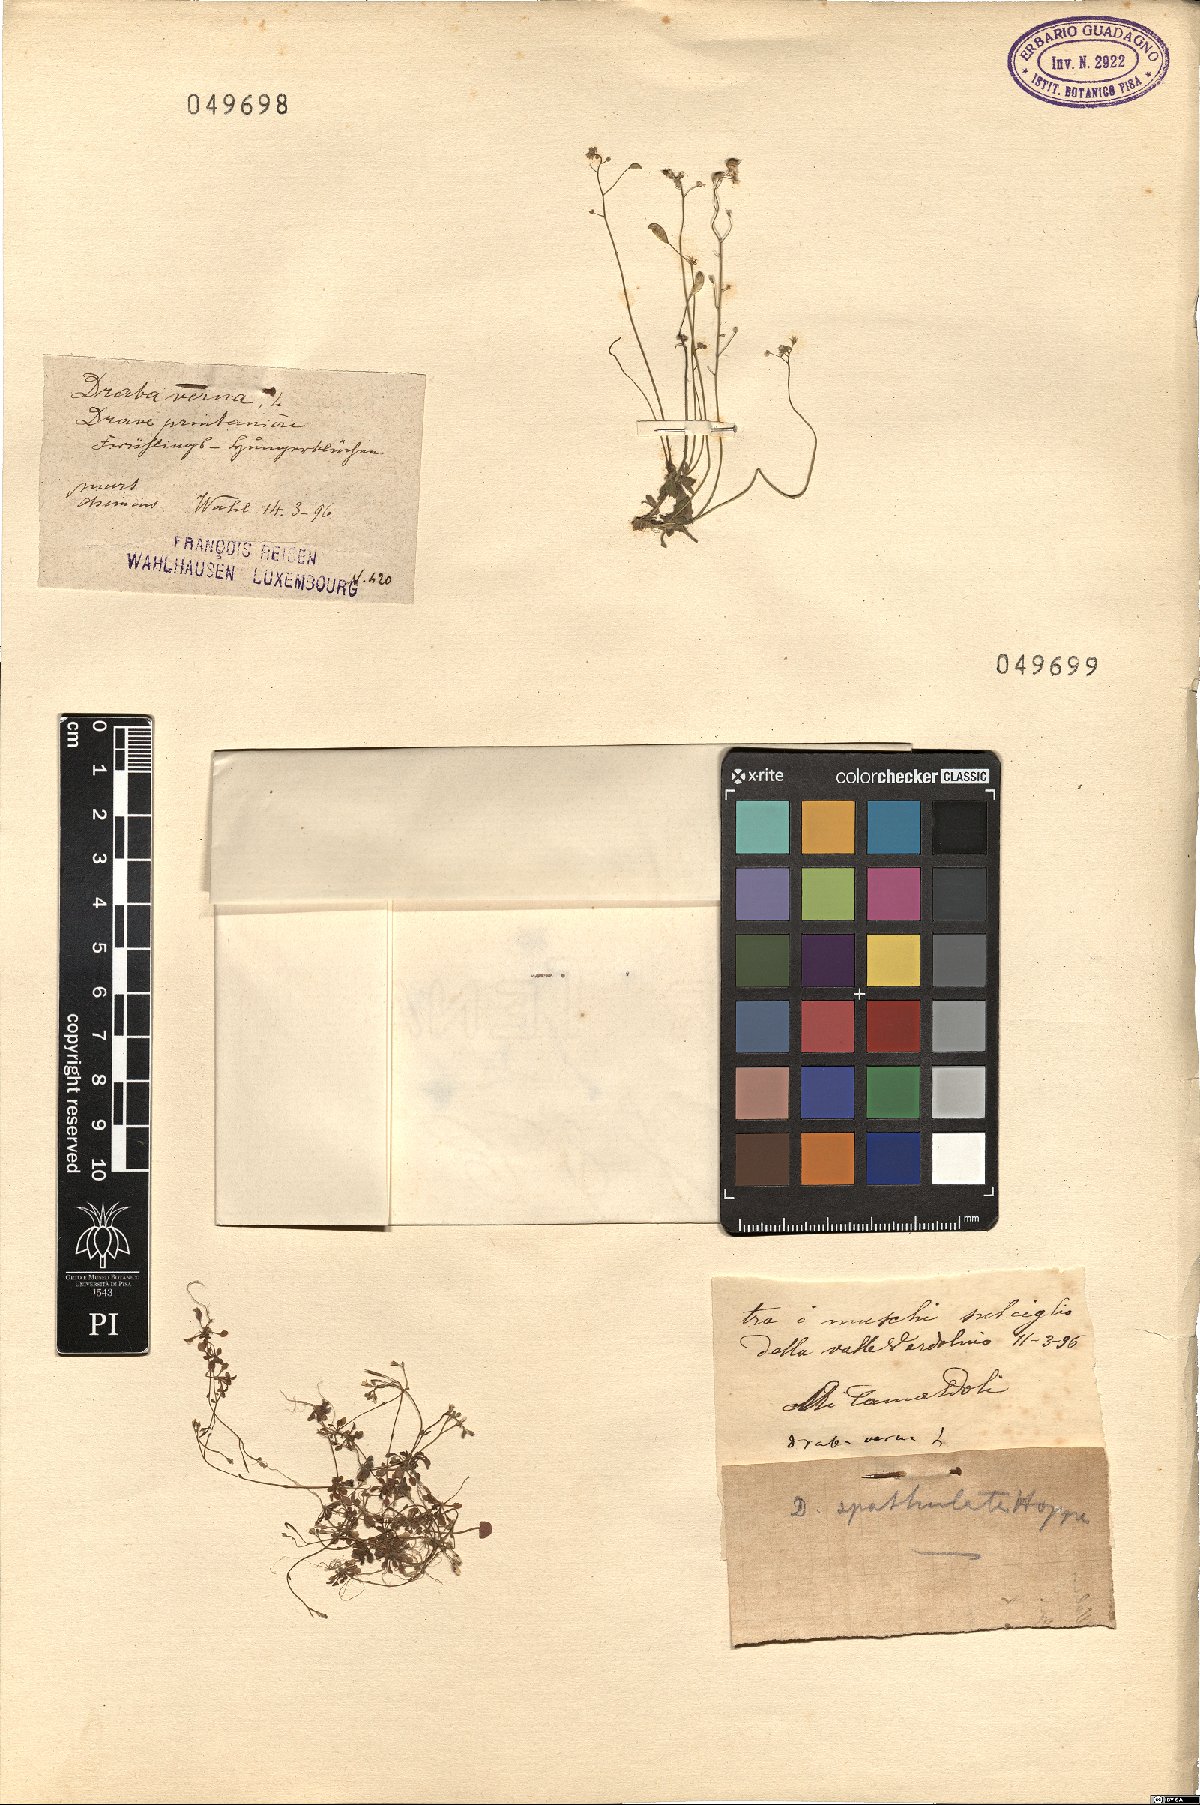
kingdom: Plantae
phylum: Tracheophyta
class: Magnoliopsida
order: Brassicales
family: Brassicaceae
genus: Draba
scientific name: Draba verna
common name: Spring draba
